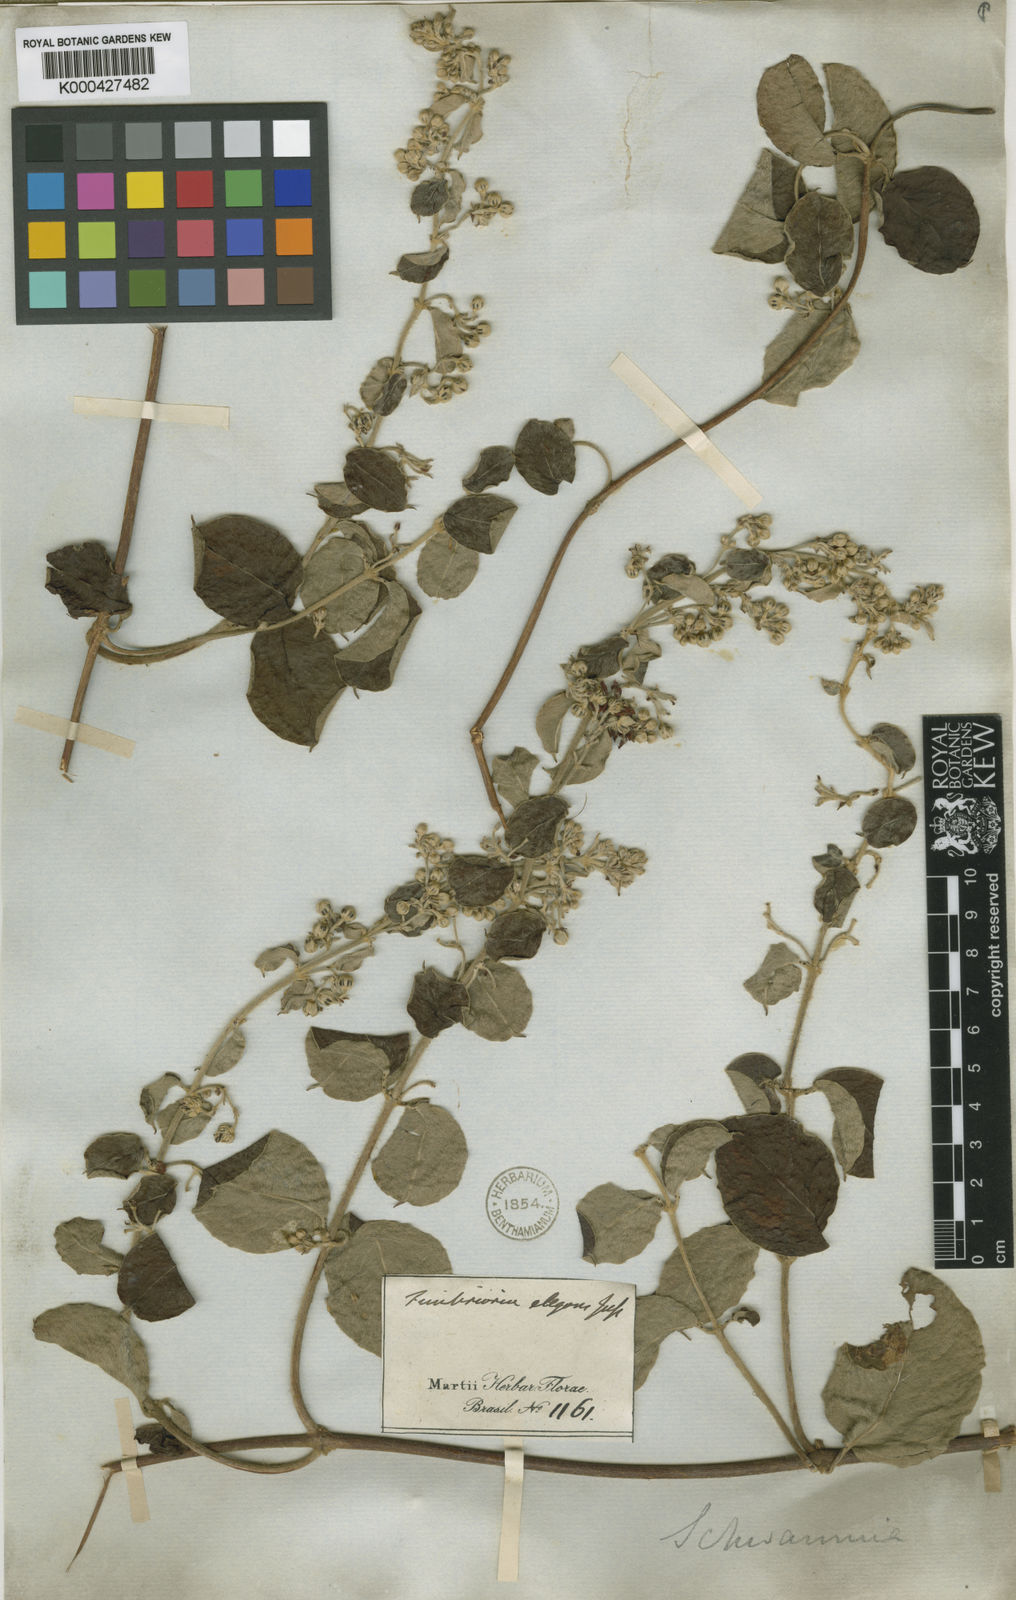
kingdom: Plantae
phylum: Tracheophyta
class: Magnoliopsida
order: Malpighiales
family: Malpighiaceae
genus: Janusia
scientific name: Janusia mediterranea
